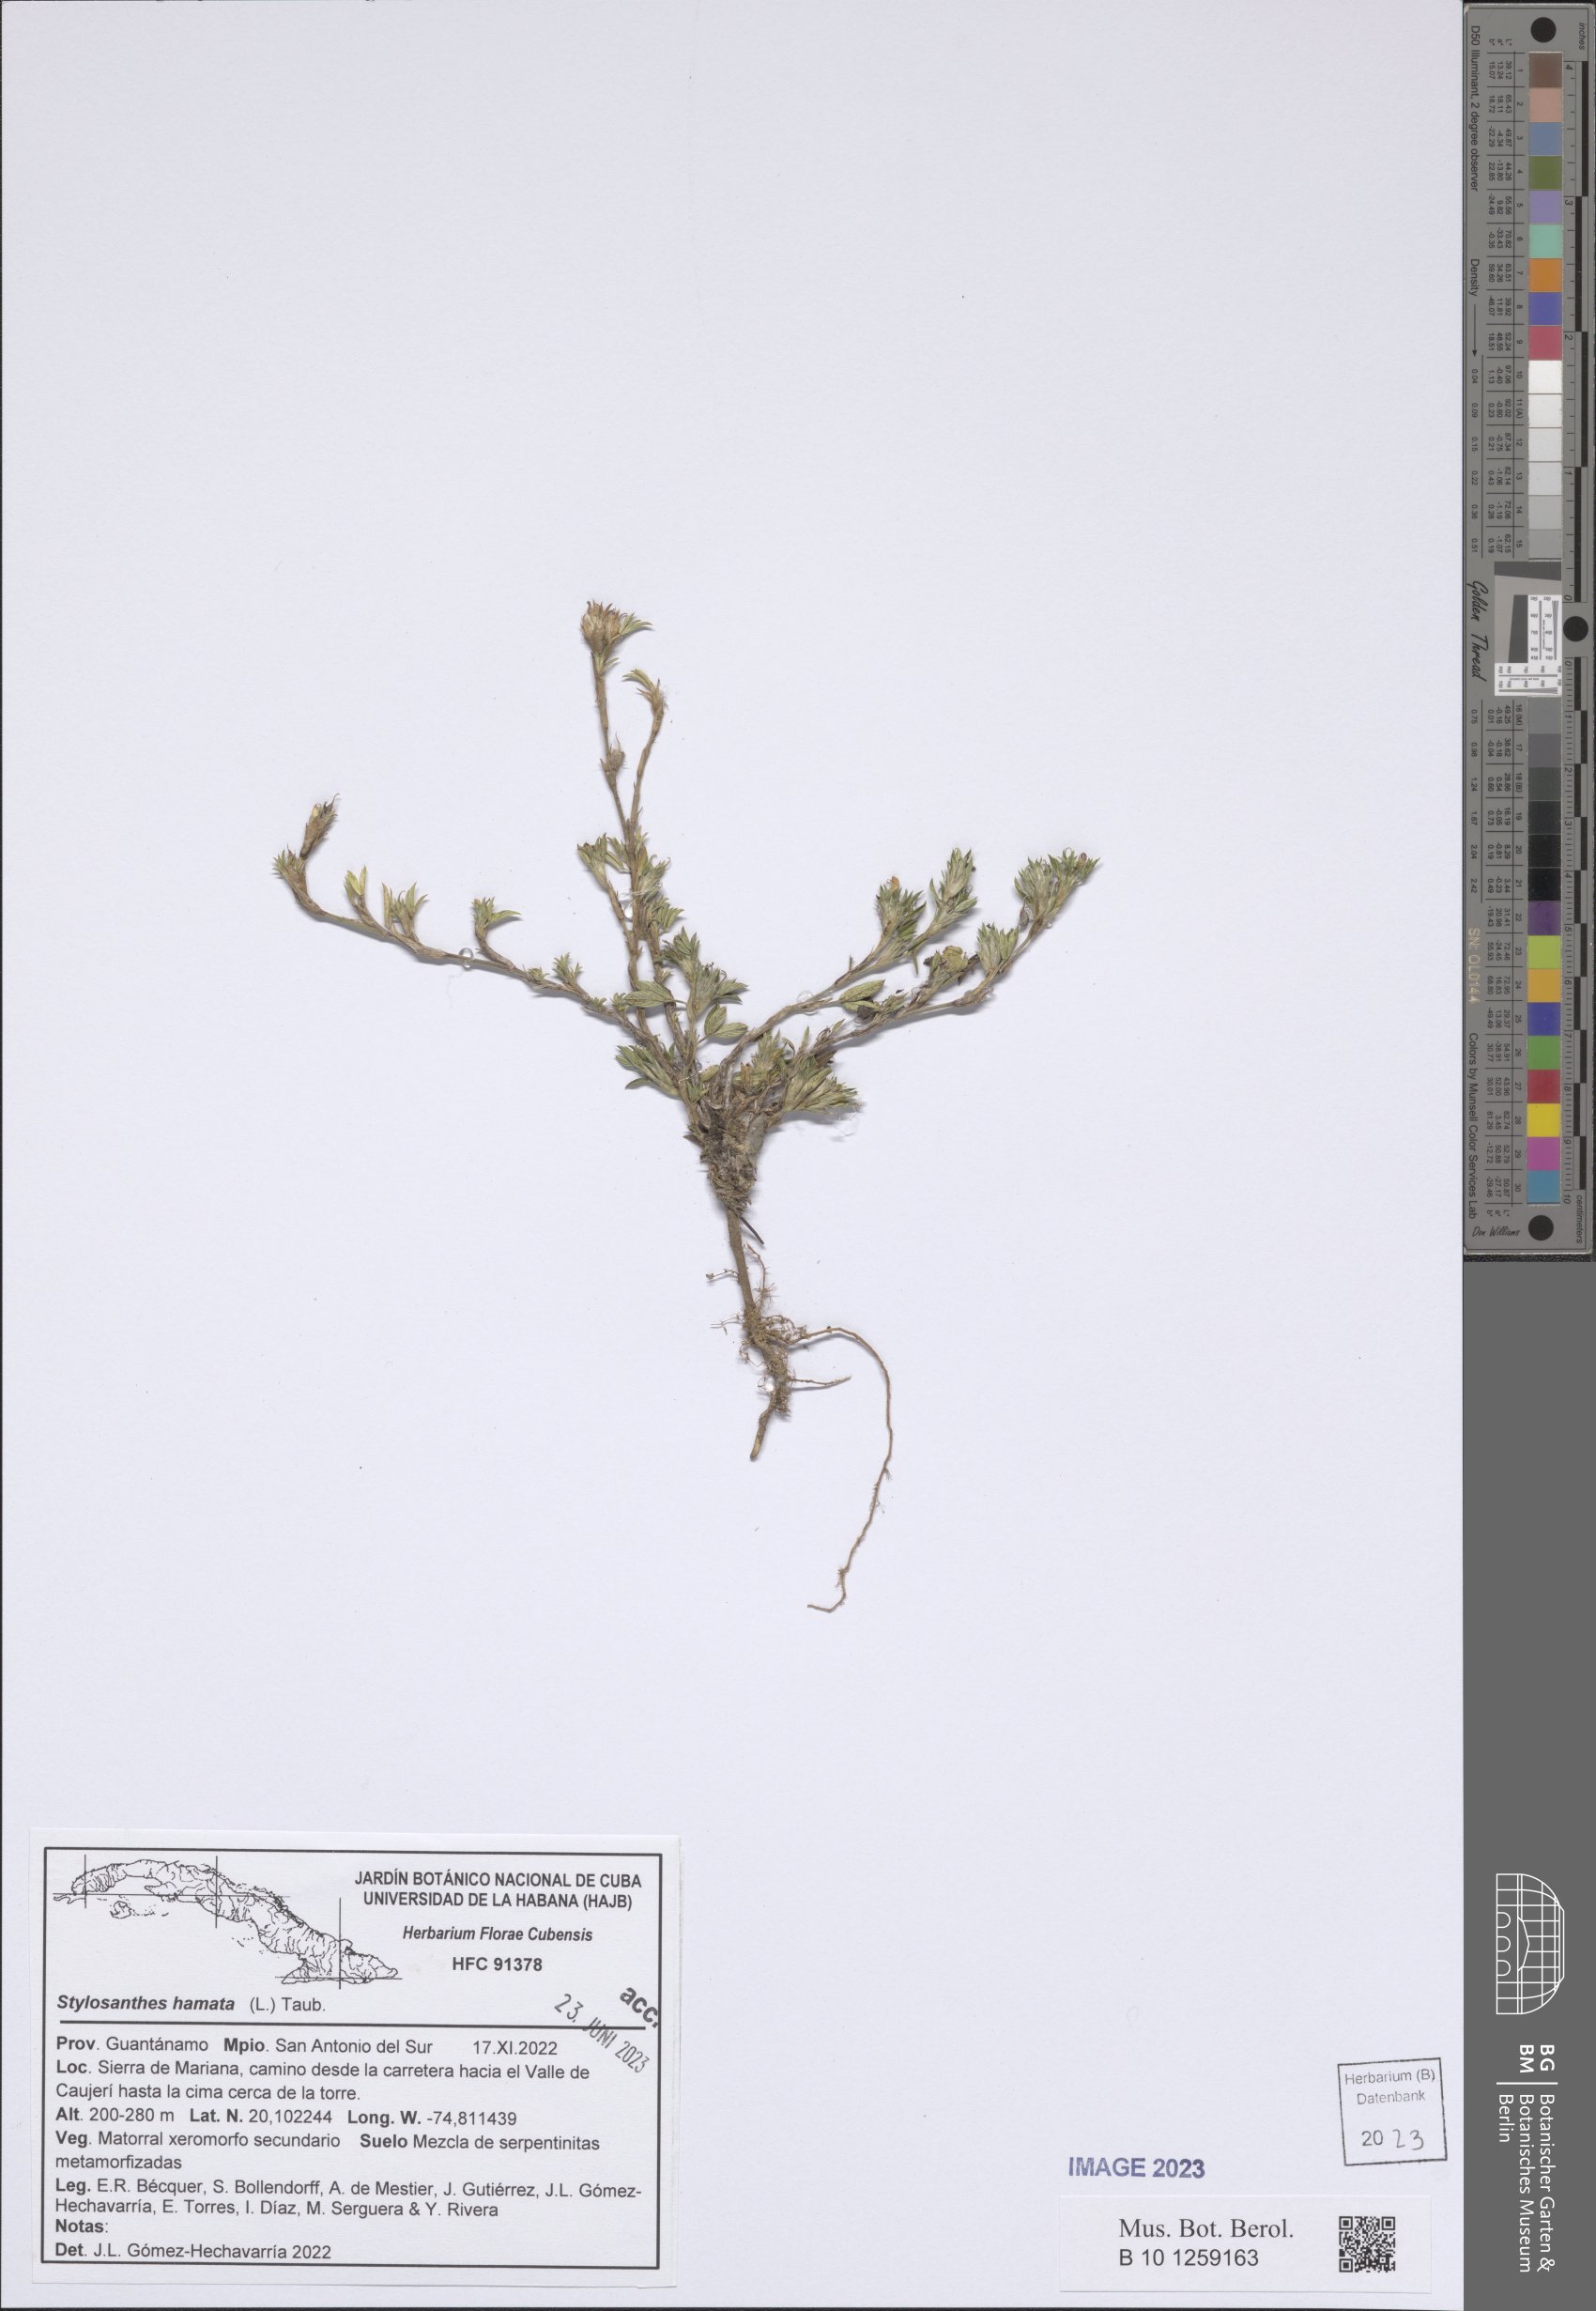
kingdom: Plantae
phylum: Tracheophyta
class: Magnoliopsida
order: Fabales
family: Fabaceae
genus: Stylosanthes
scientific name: Stylosanthes hamata
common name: Cheesytoes
